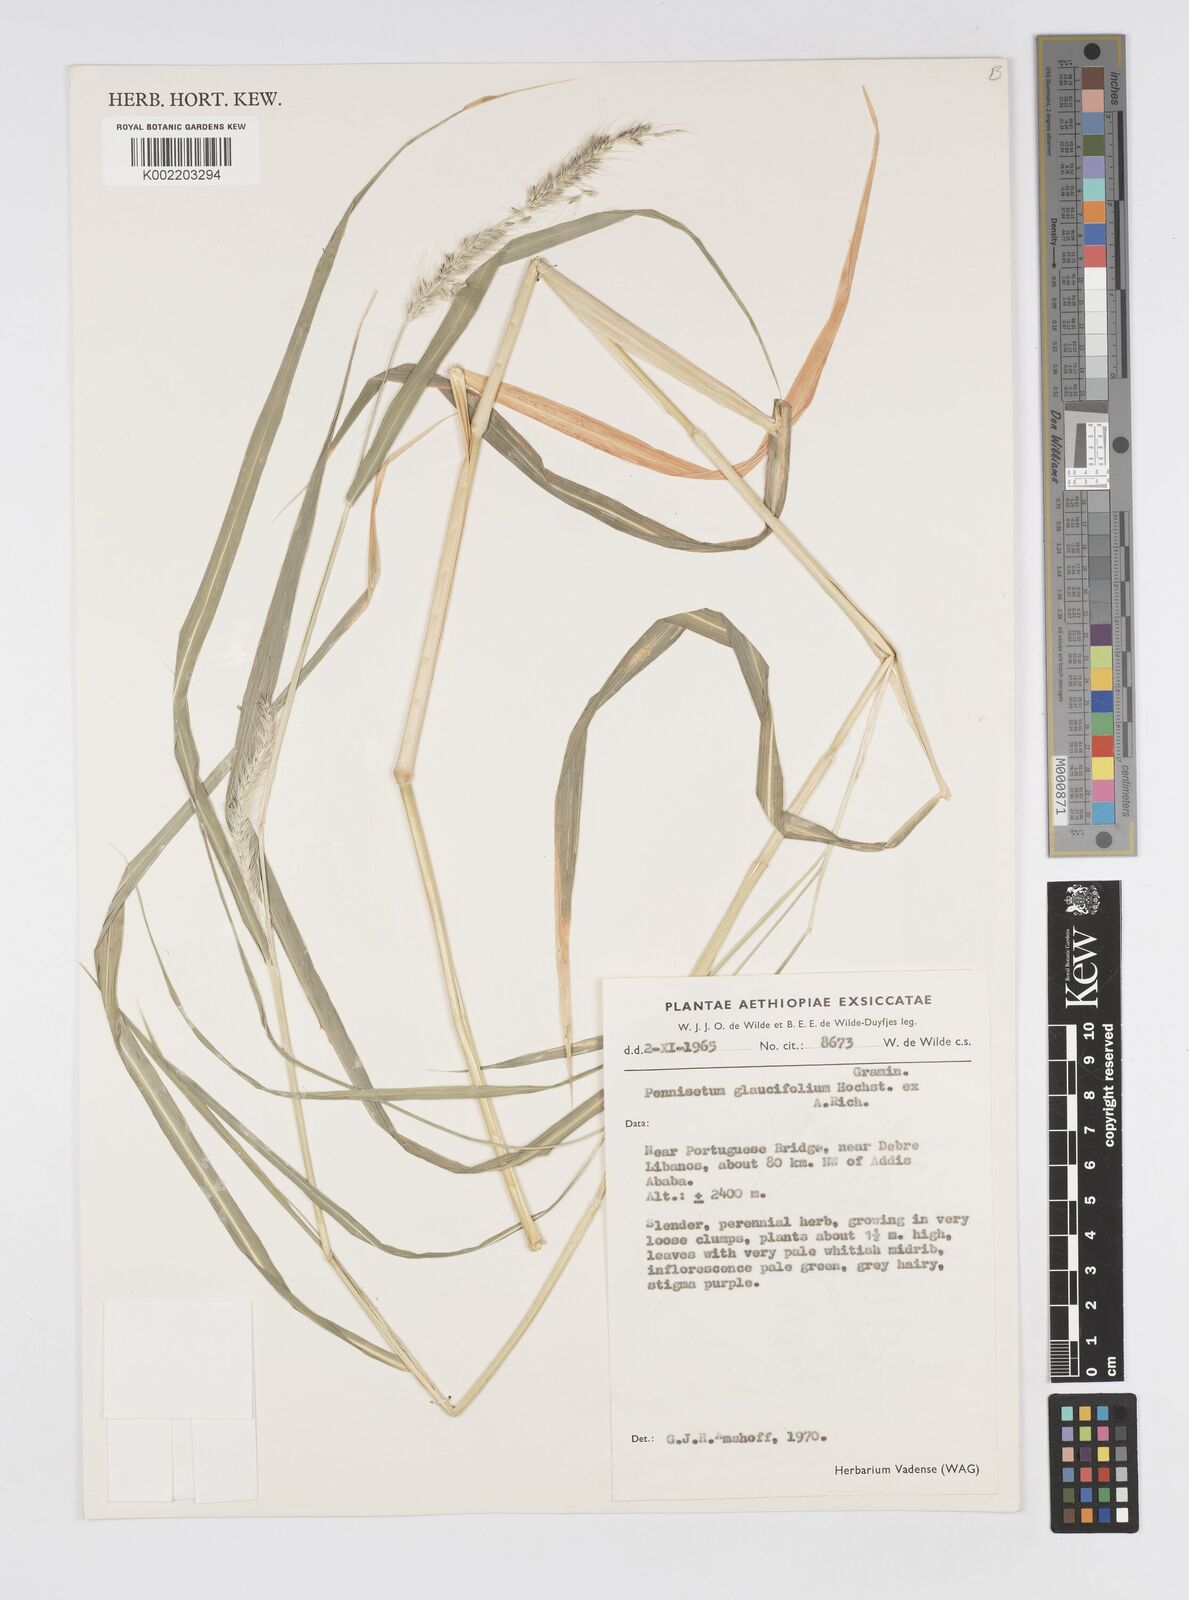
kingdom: Plantae
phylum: Tracheophyta
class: Liliopsida
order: Poales
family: Poaceae
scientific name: Poaceae
